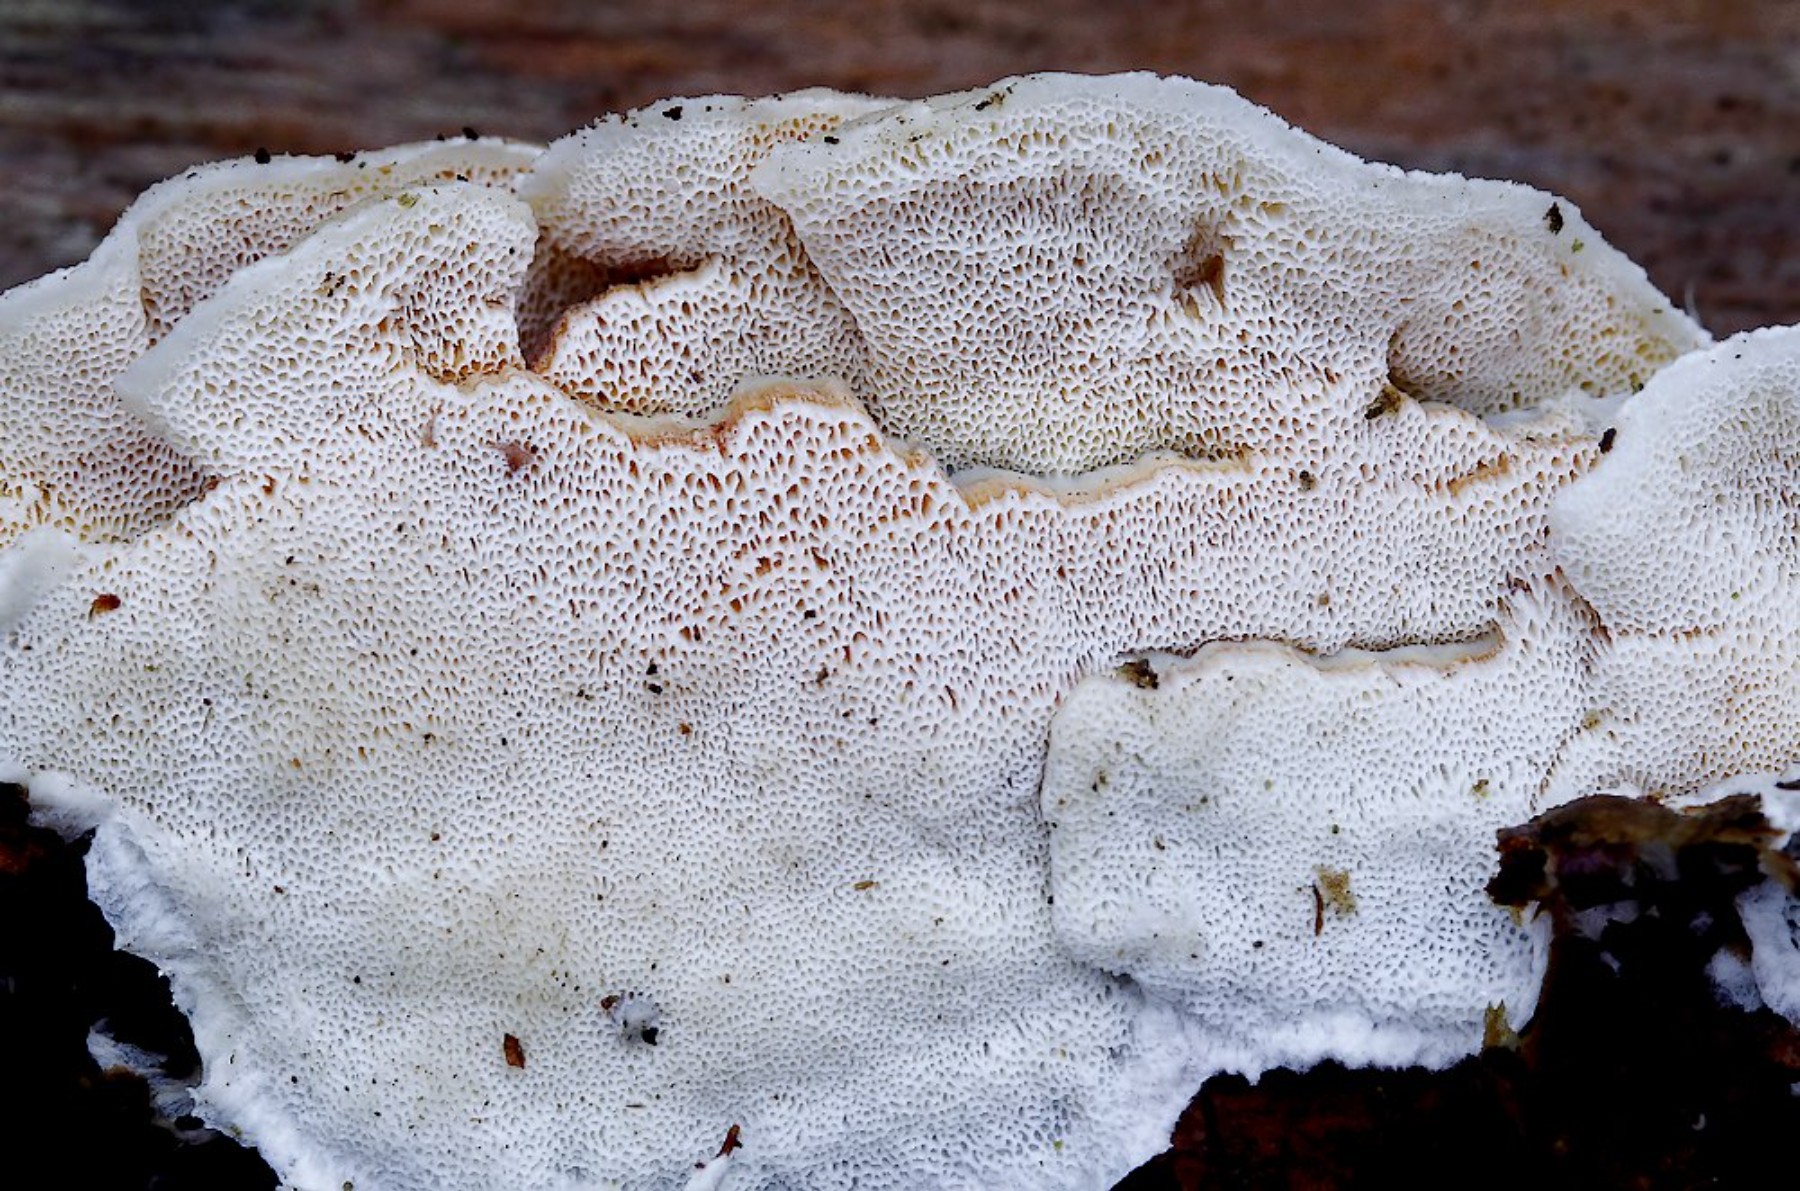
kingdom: Fungi
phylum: Basidiomycota
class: Agaricomycetes
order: Polyporales
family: Incrustoporiaceae
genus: Skeletocutis
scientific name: Skeletocutis amorpha
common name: orange krystalporesvamp
